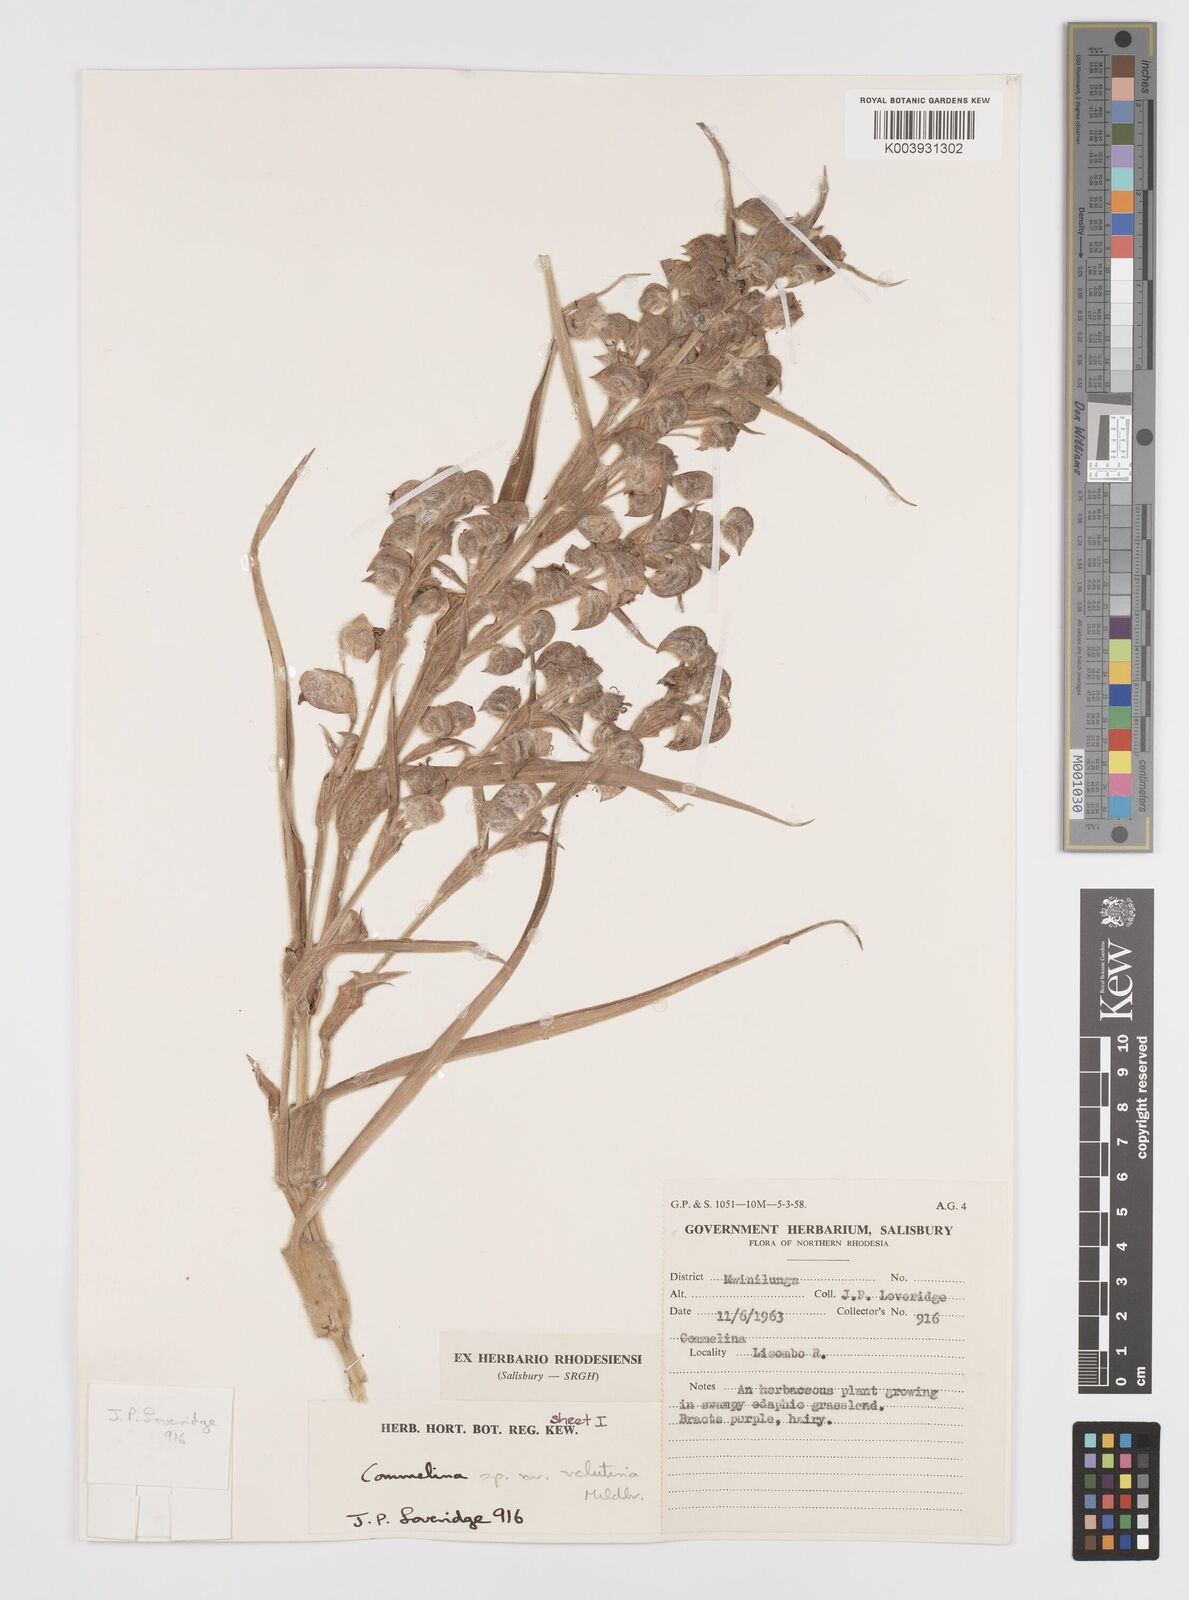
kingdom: Plantae
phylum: Tracheophyta
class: Liliopsida
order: Commelinales
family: Commelinaceae
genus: Commelina
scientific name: Commelina velutina
